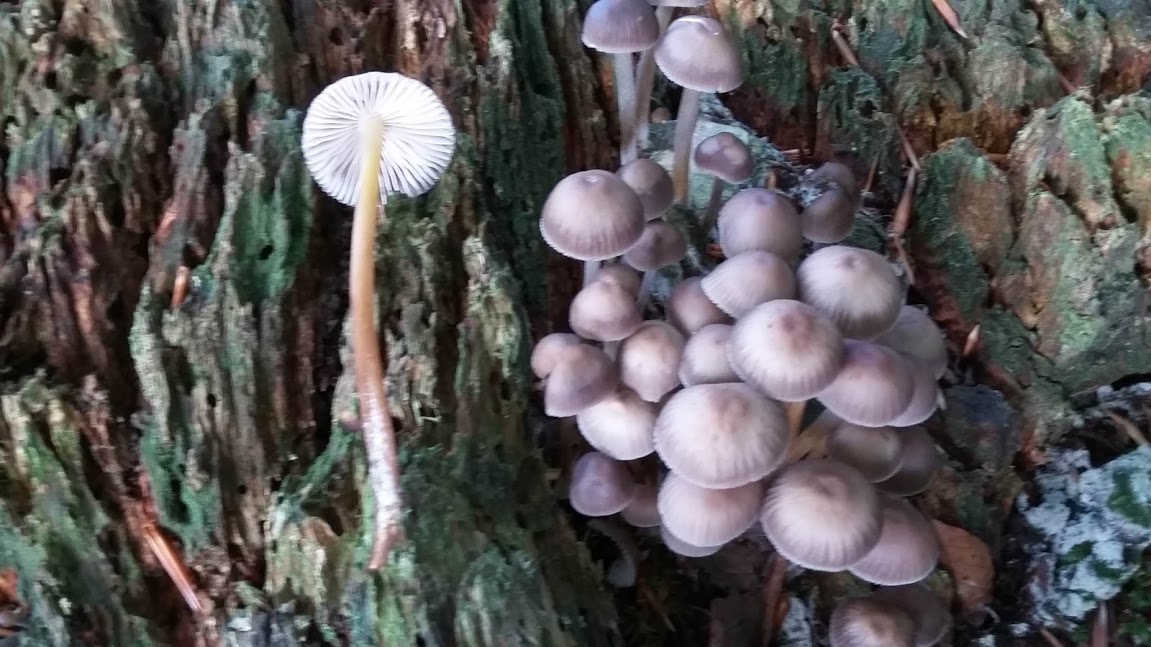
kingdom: Fungi
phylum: Basidiomycota
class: Agaricomycetes
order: Agaricales
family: Mycenaceae
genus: Mycena
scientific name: Mycena inclinata
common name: nikkende huesvamp
